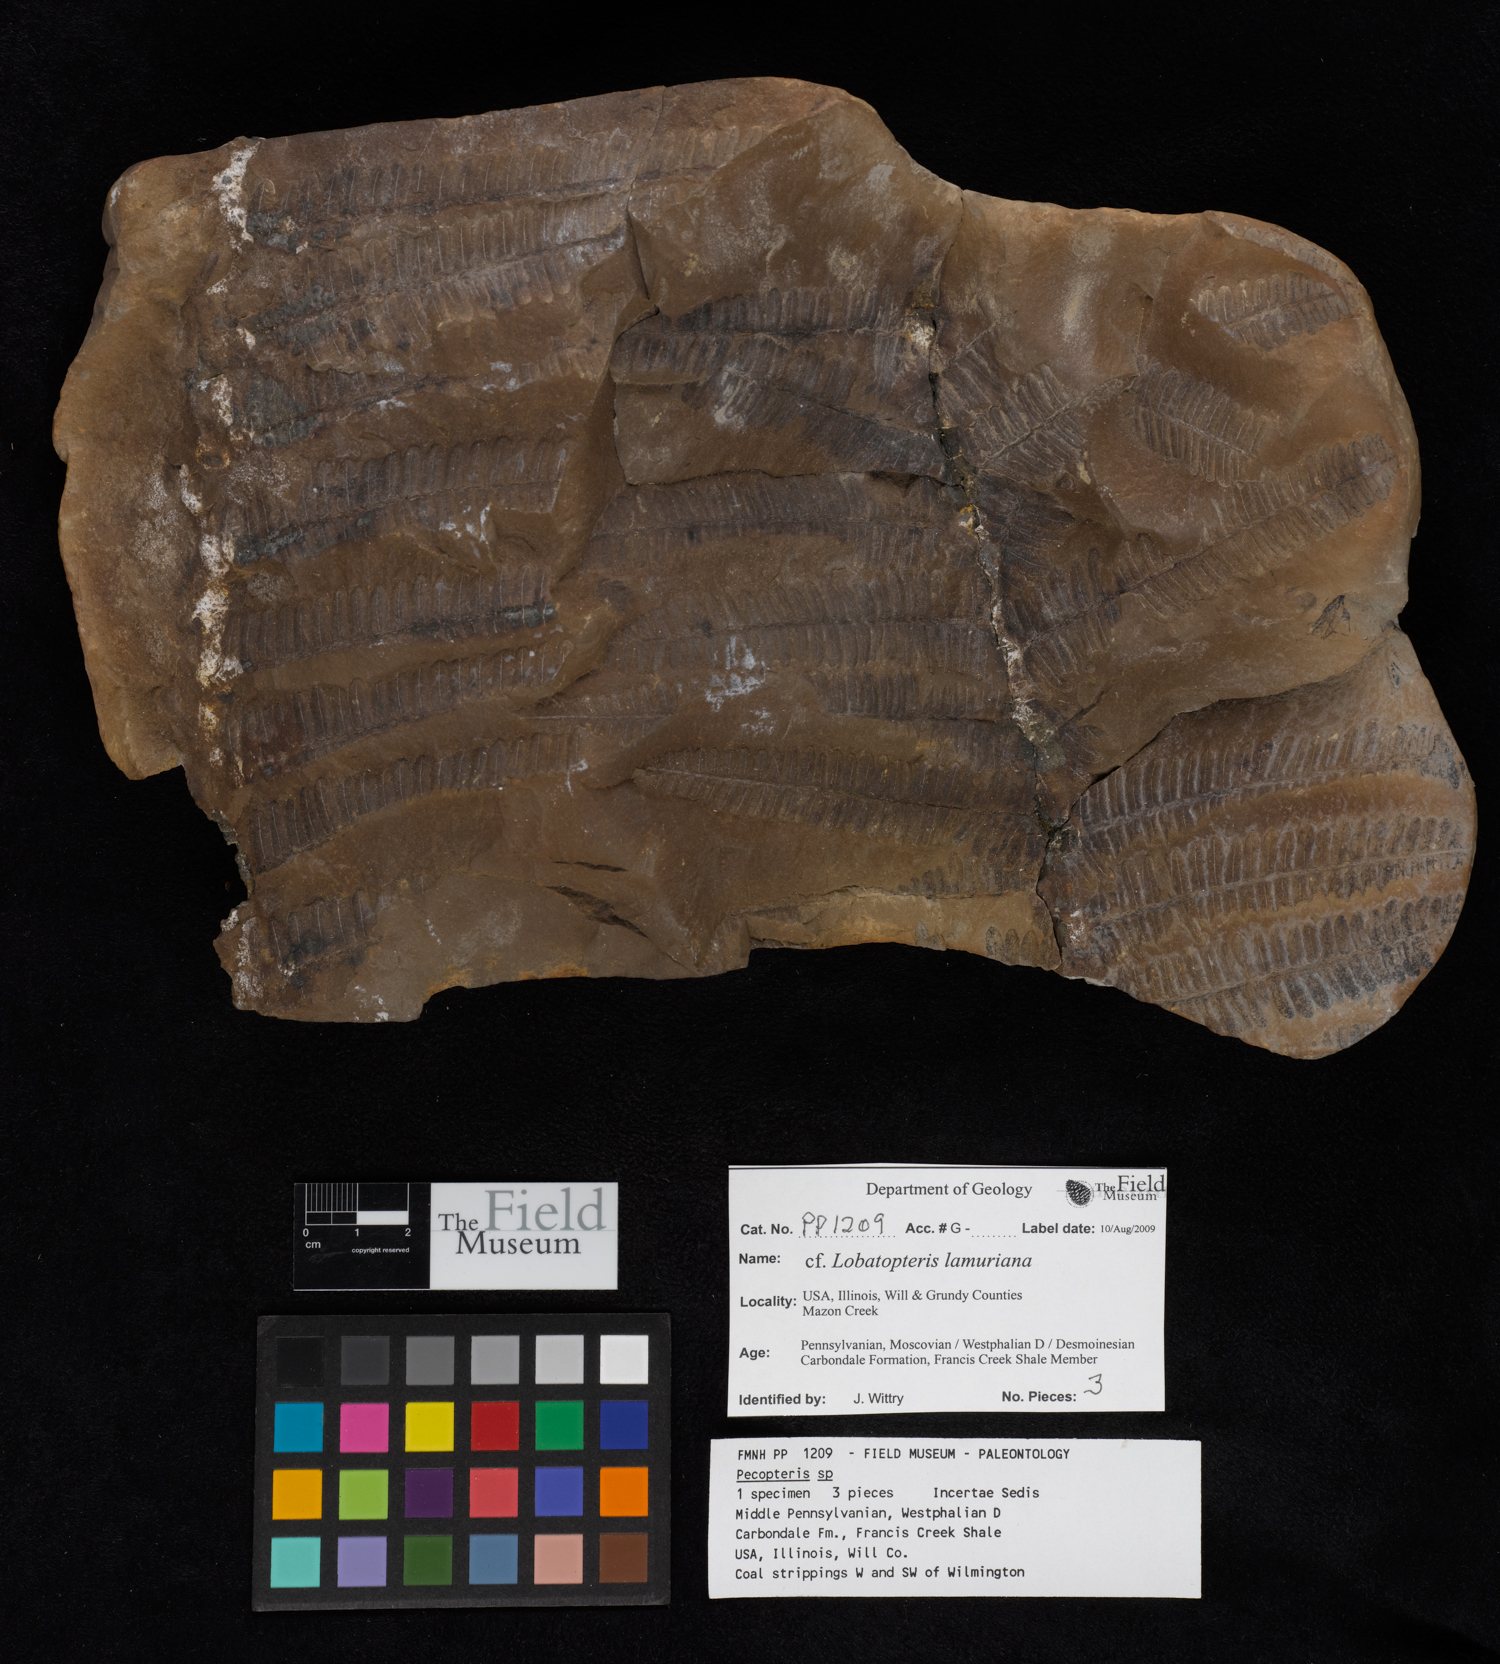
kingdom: Plantae
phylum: Tracheophyta
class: Polypodiopsida
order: Marattiales
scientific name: Marattiales
